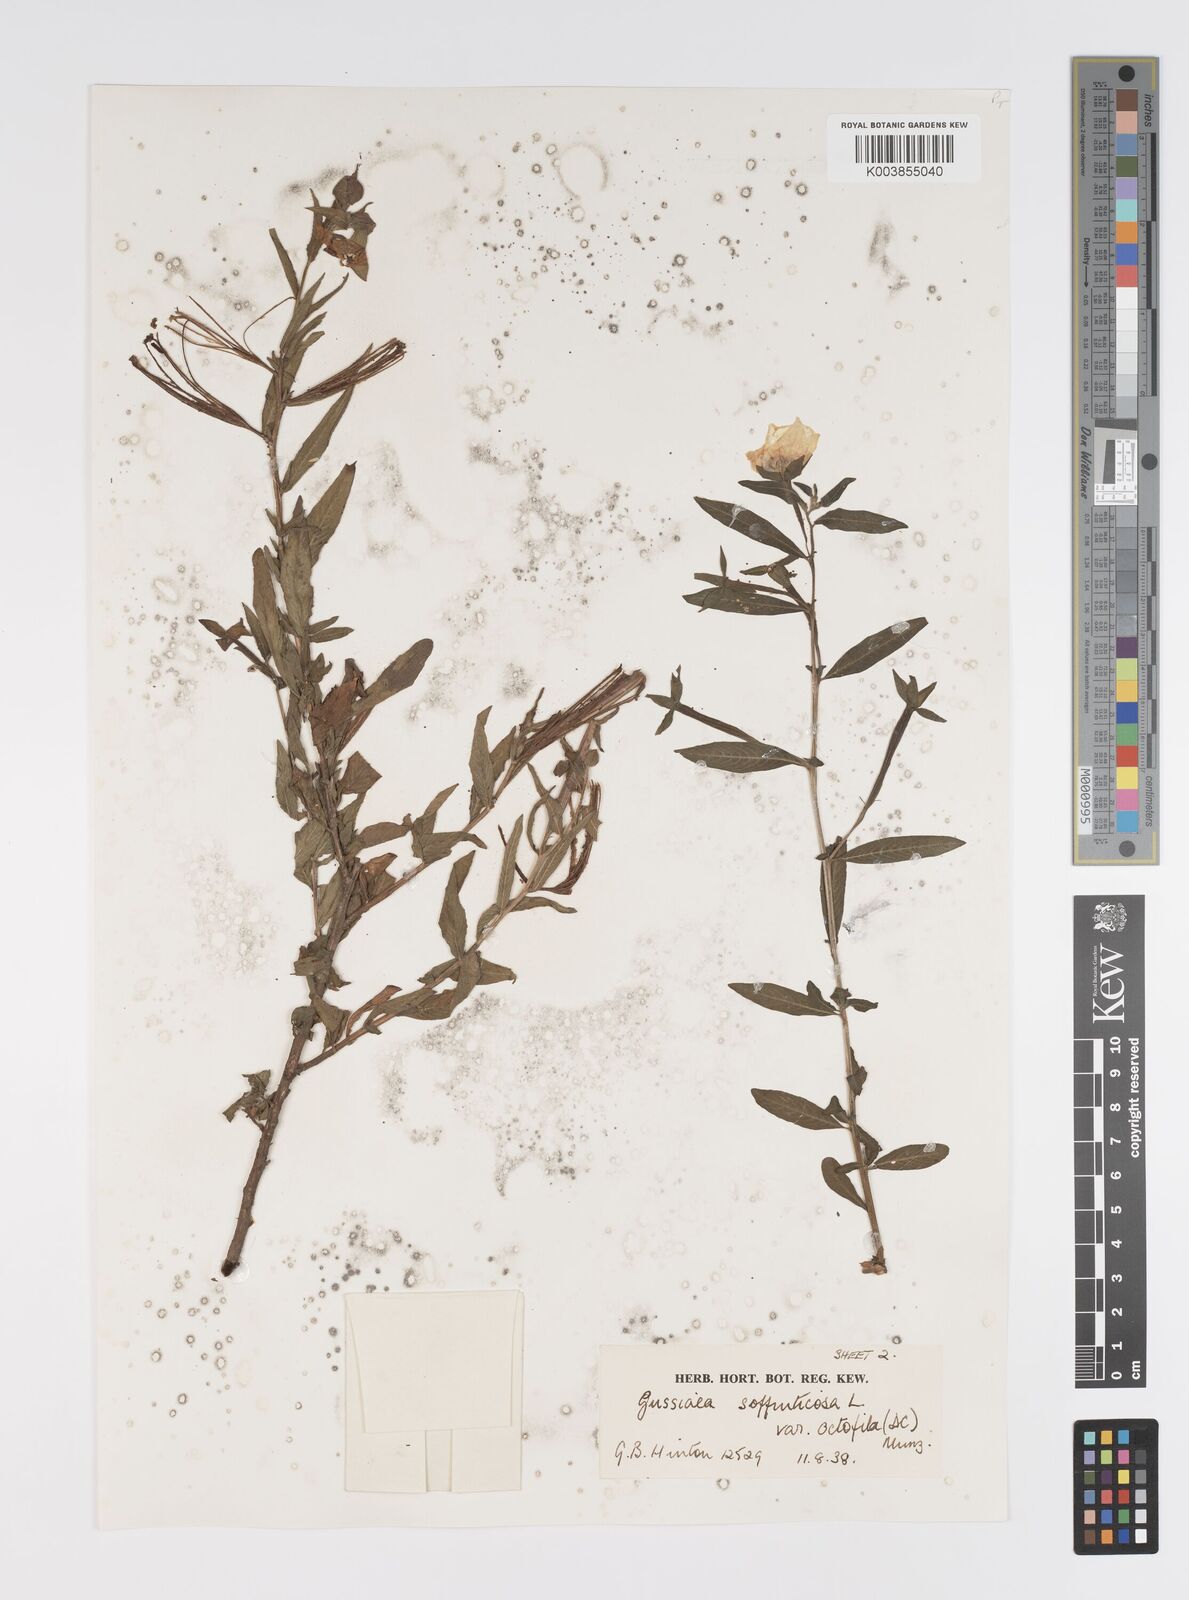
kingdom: Plantae
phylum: Tracheophyta
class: Magnoliopsida
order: Myrtales
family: Onagraceae
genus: Ludwigia
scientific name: Ludwigia octovalvis
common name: Water-primrose
